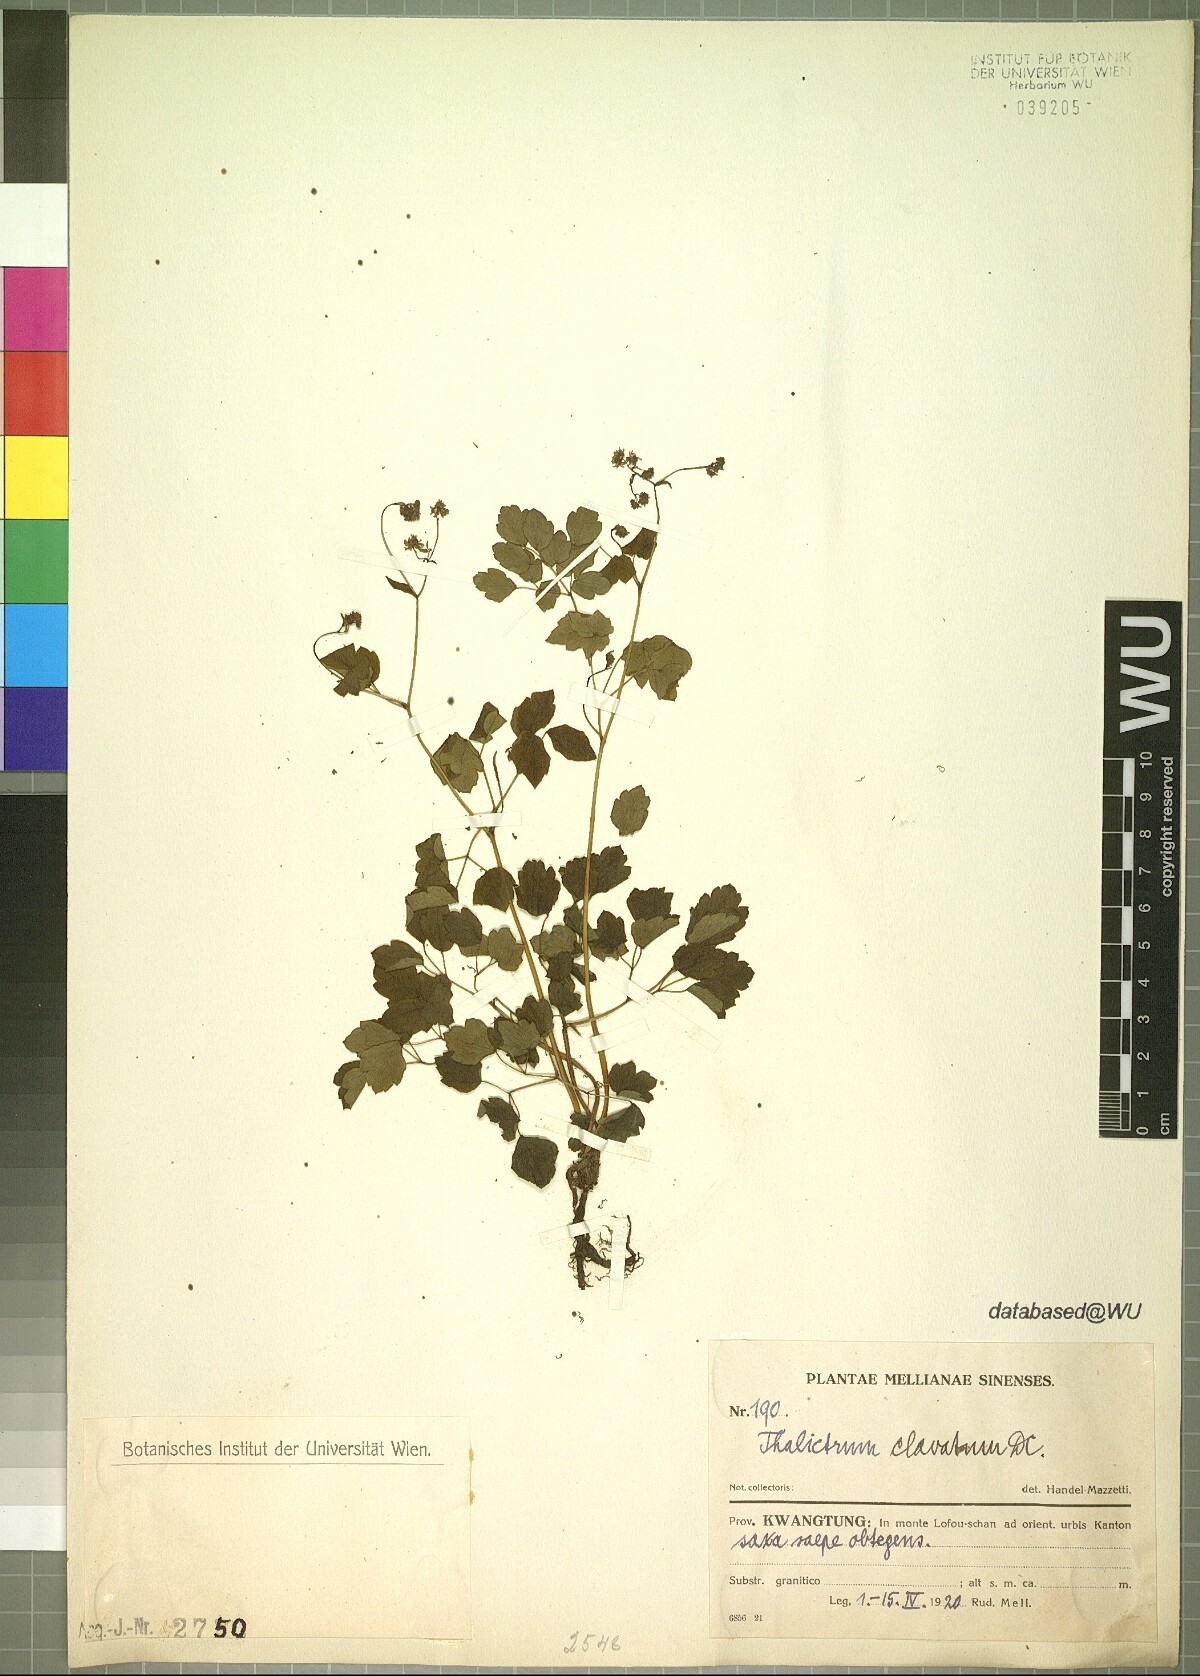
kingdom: Plantae
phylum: Tracheophyta
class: Magnoliopsida
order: Ranunculales
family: Ranunculaceae
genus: Thalictrum
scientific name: Thalictrum clavatum
